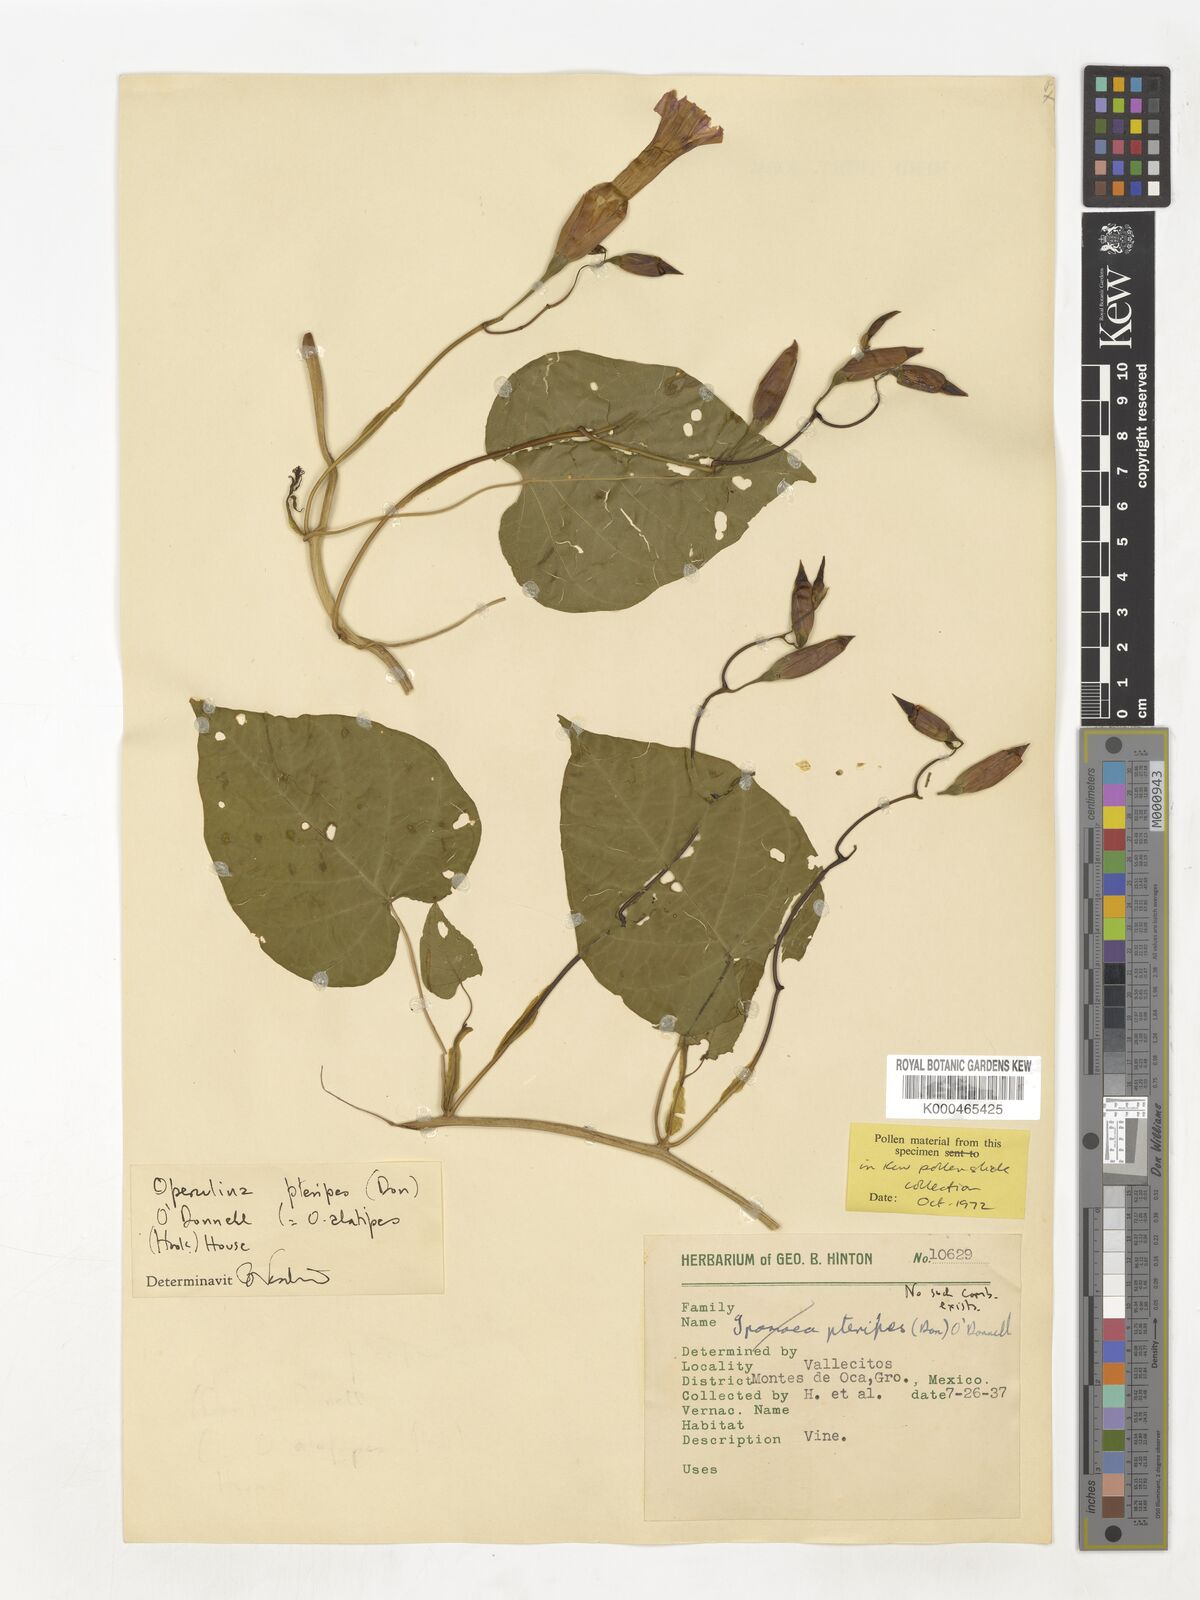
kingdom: Plantae
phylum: Tracheophyta
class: Magnoliopsida
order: Solanales
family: Convolvulaceae
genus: Operculina
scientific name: Operculina
